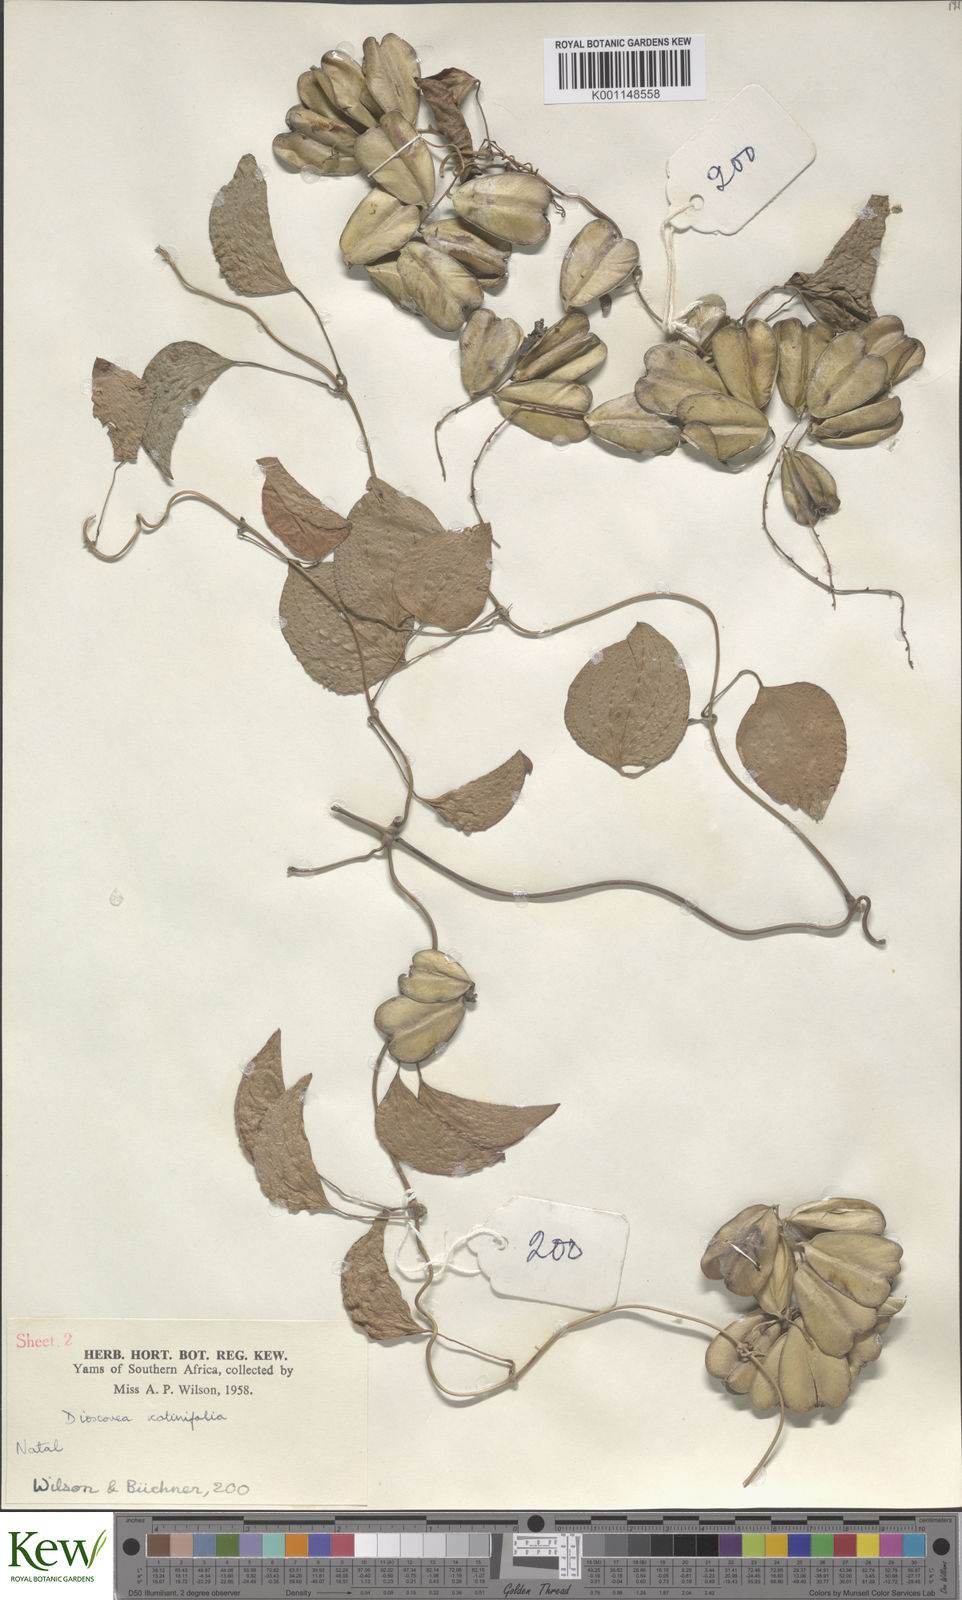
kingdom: Plantae
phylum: Tracheophyta
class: Liliopsida
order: Dioscoreales
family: Dioscoreaceae
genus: Dioscorea
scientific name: Dioscorea cotinifolia
